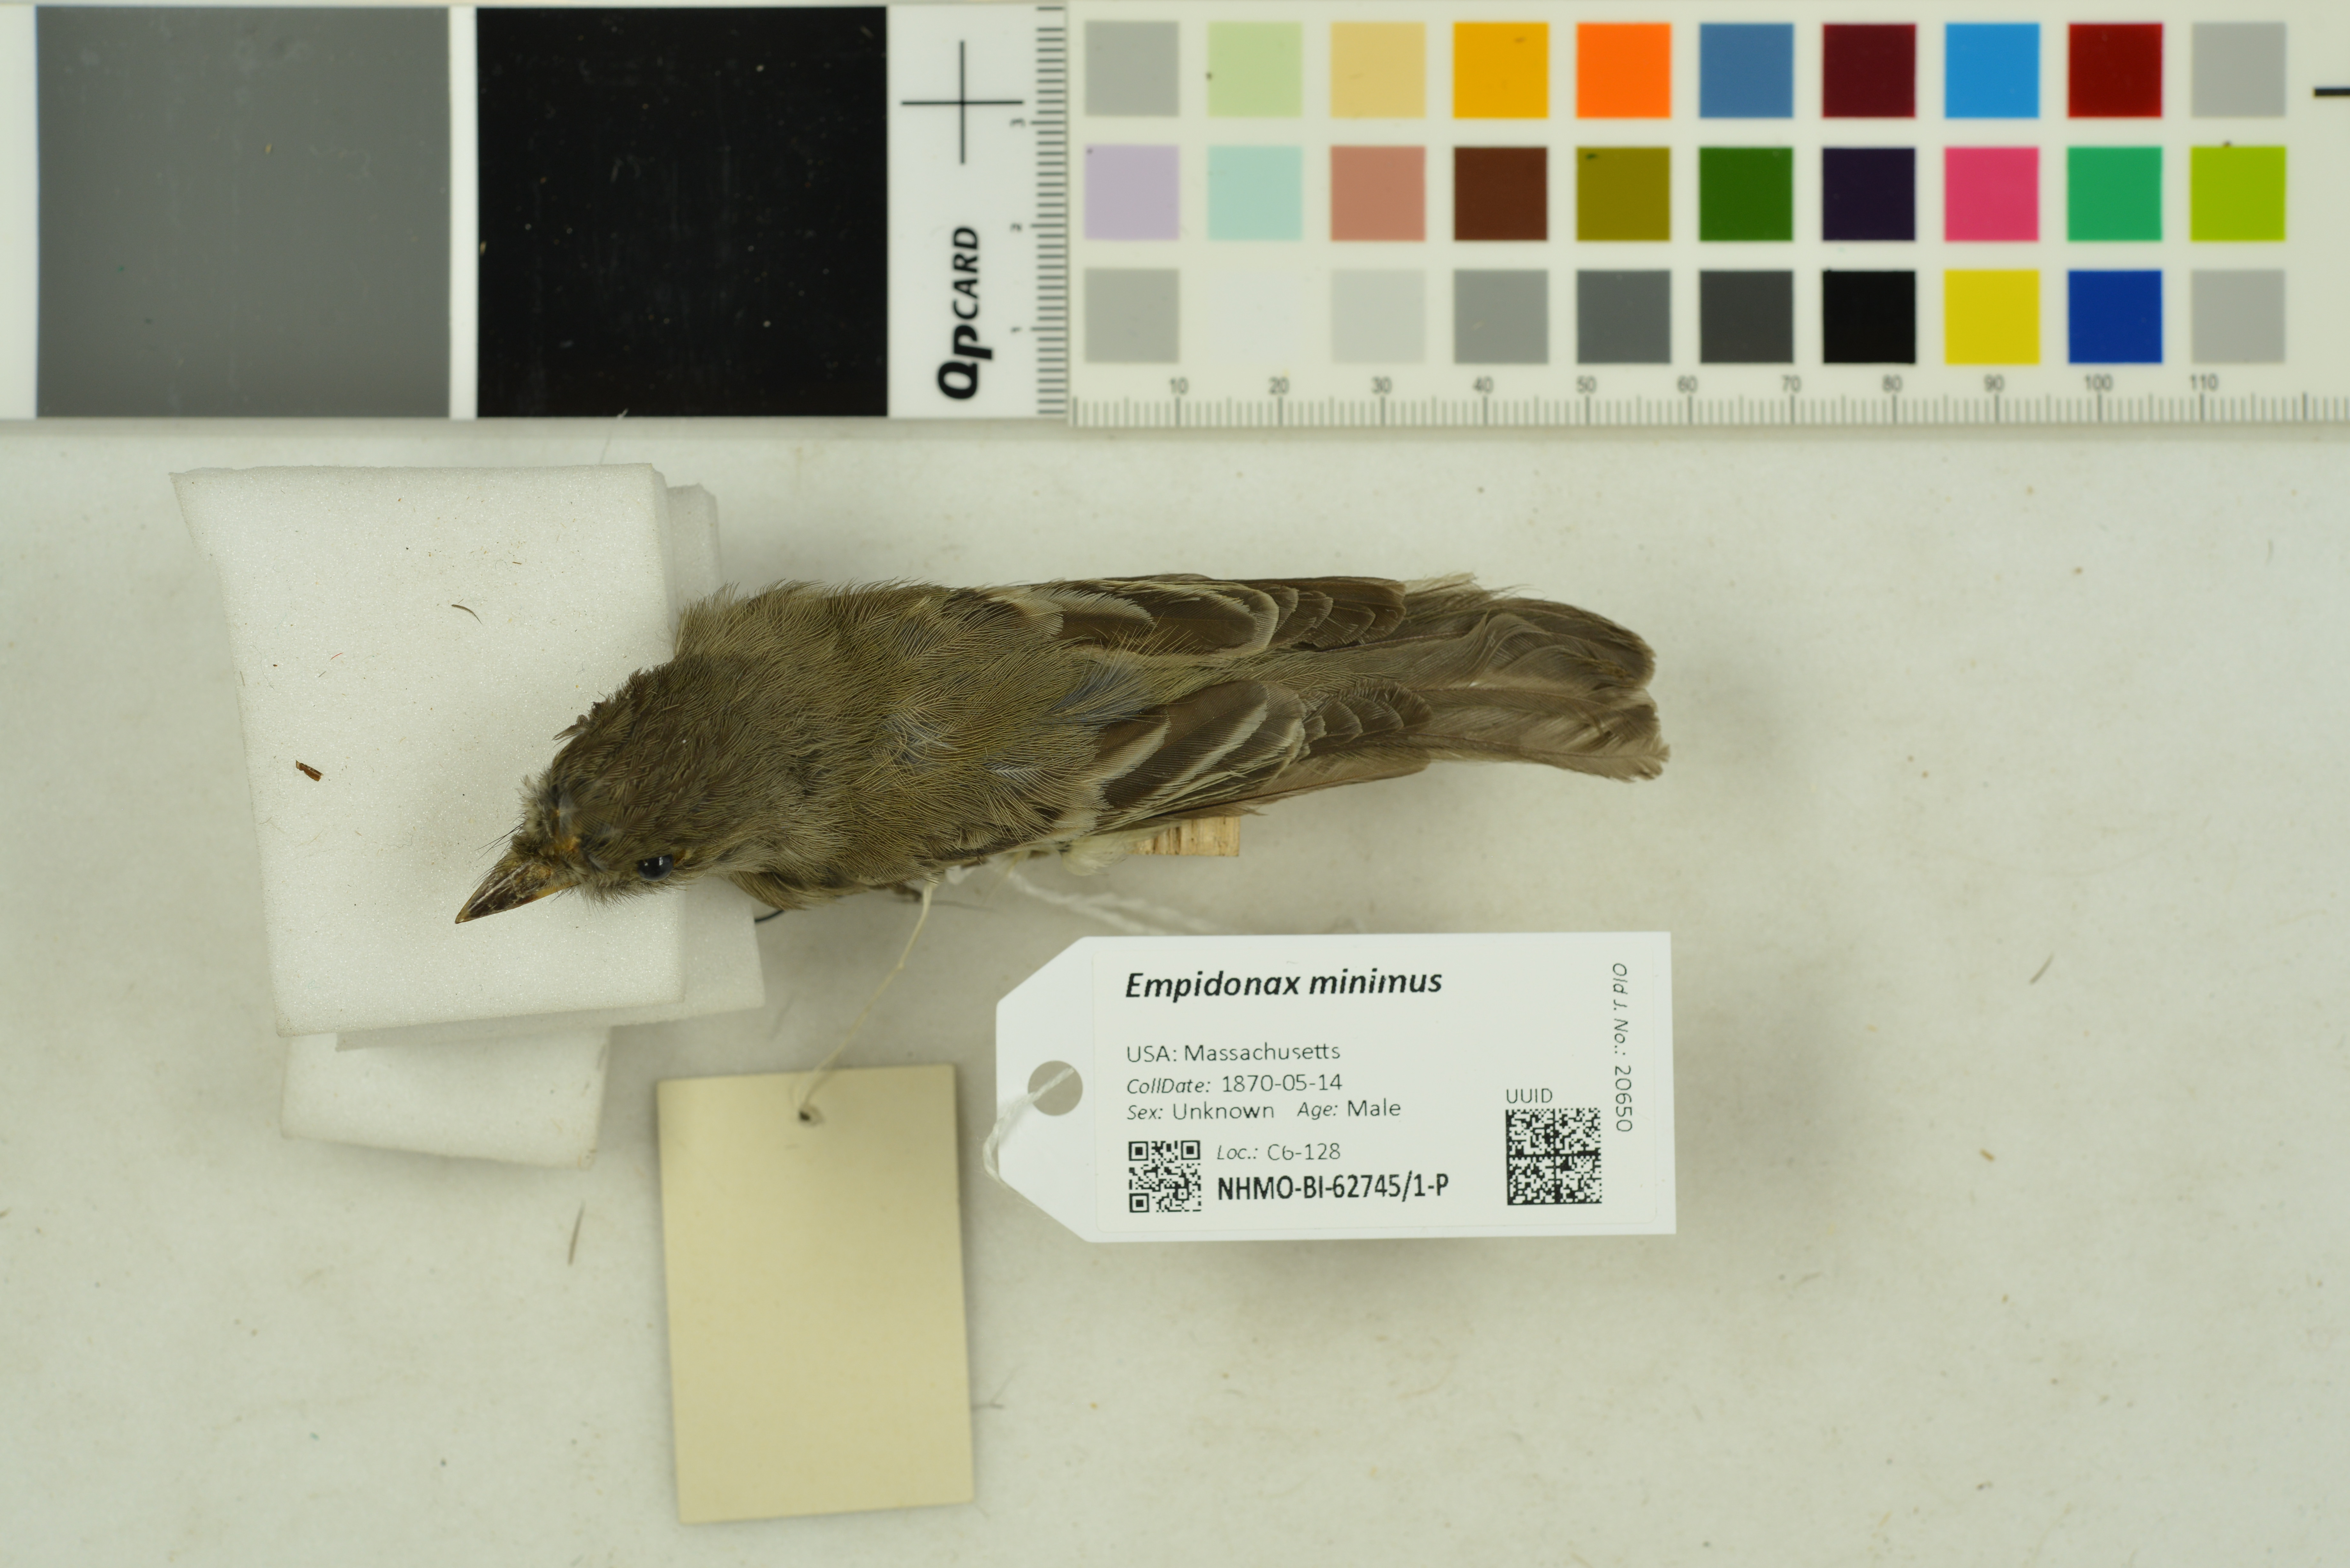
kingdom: Animalia
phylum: Chordata
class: Aves
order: Passeriformes
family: Tyrannidae
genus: Empidonax
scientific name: Empidonax minimus
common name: Least flycatcher
